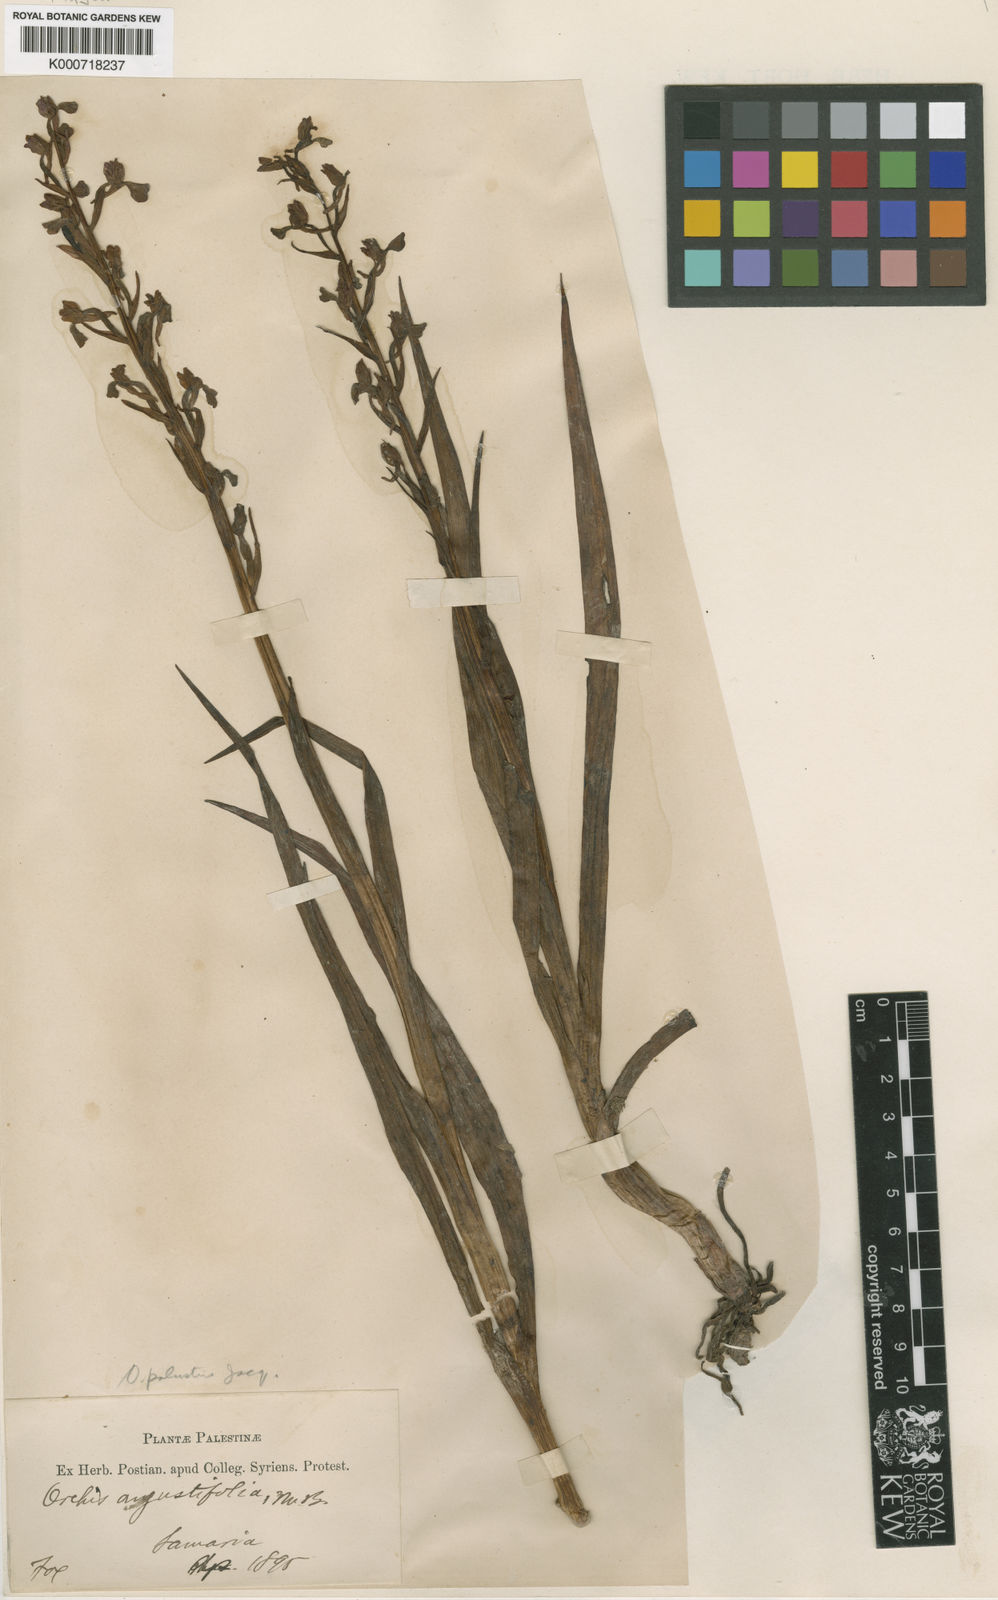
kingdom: Plantae
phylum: Tracheophyta
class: Liliopsida
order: Asparagales
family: Orchidaceae
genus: Anacamptis
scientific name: Anacamptis palustris
